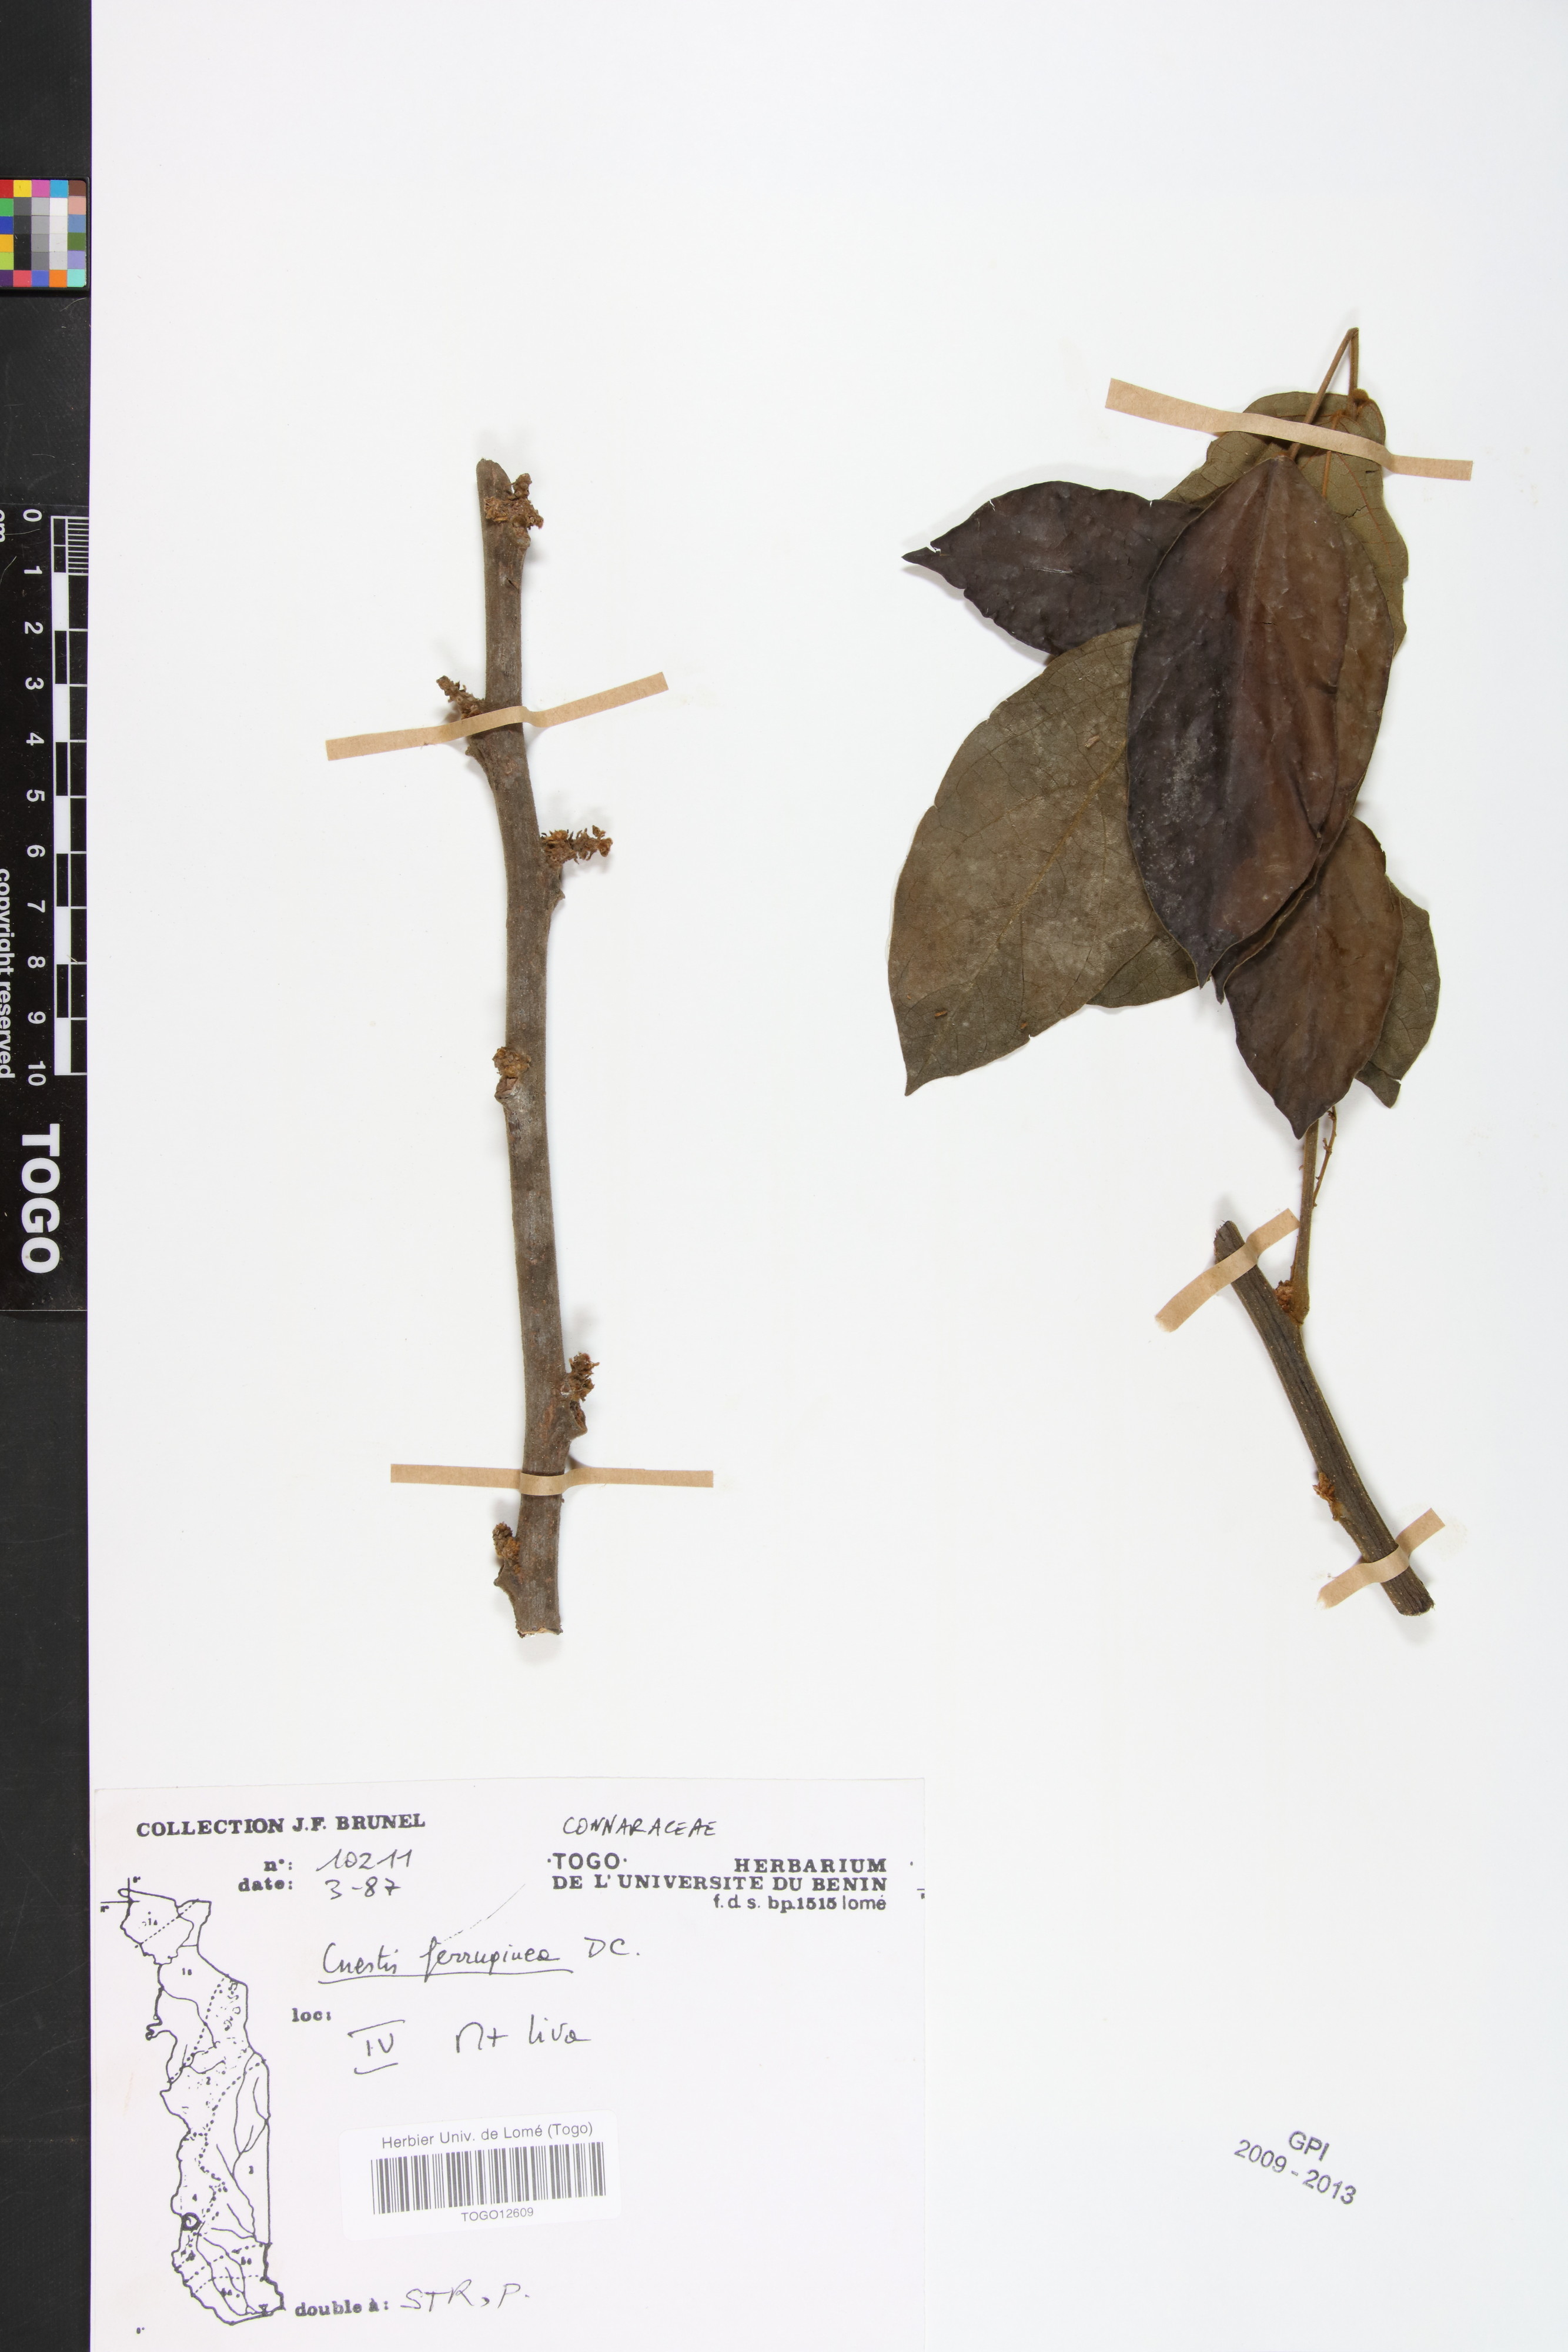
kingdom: Plantae
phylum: Tracheophyta
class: Magnoliopsida
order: Oxalidales
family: Connaraceae
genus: Cnestis
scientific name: Cnestis ferruginea
